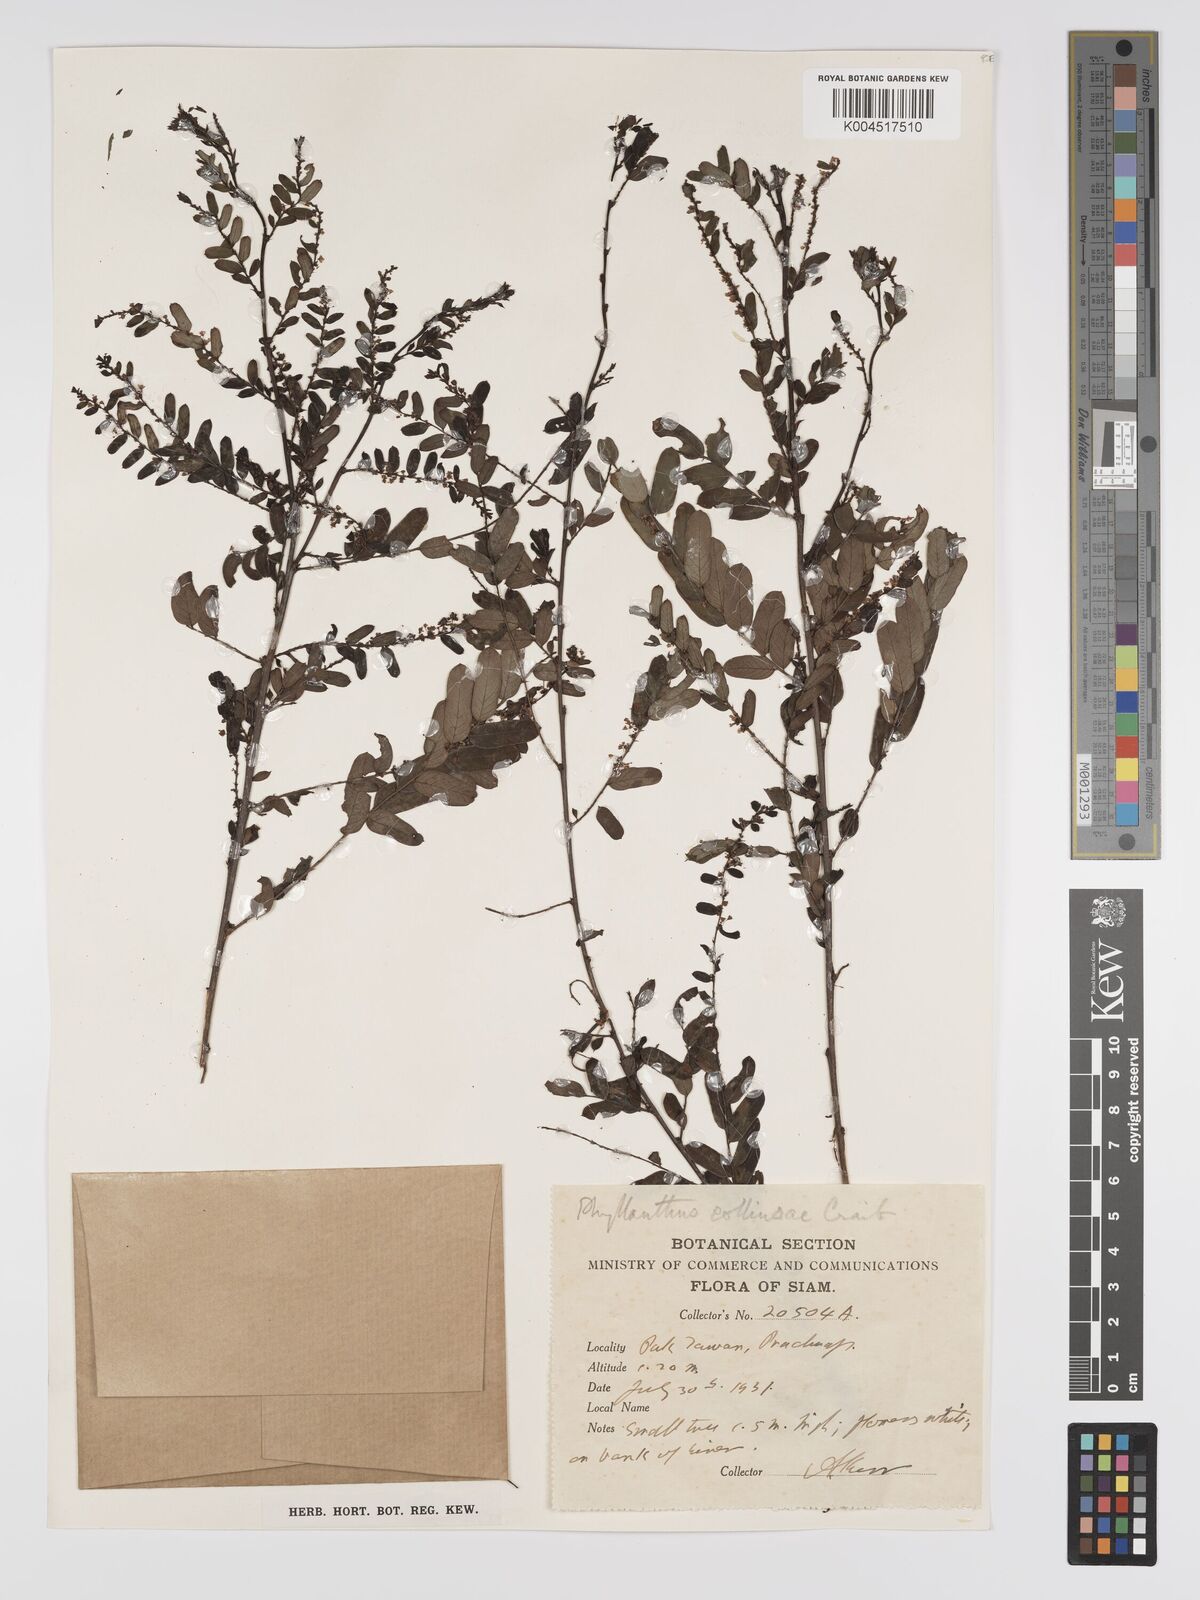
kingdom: Plantae
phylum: Tracheophyta
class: Magnoliopsida
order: Malpighiales
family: Phyllanthaceae
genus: Phyllanthus
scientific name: Phyllanthus collinsiae
